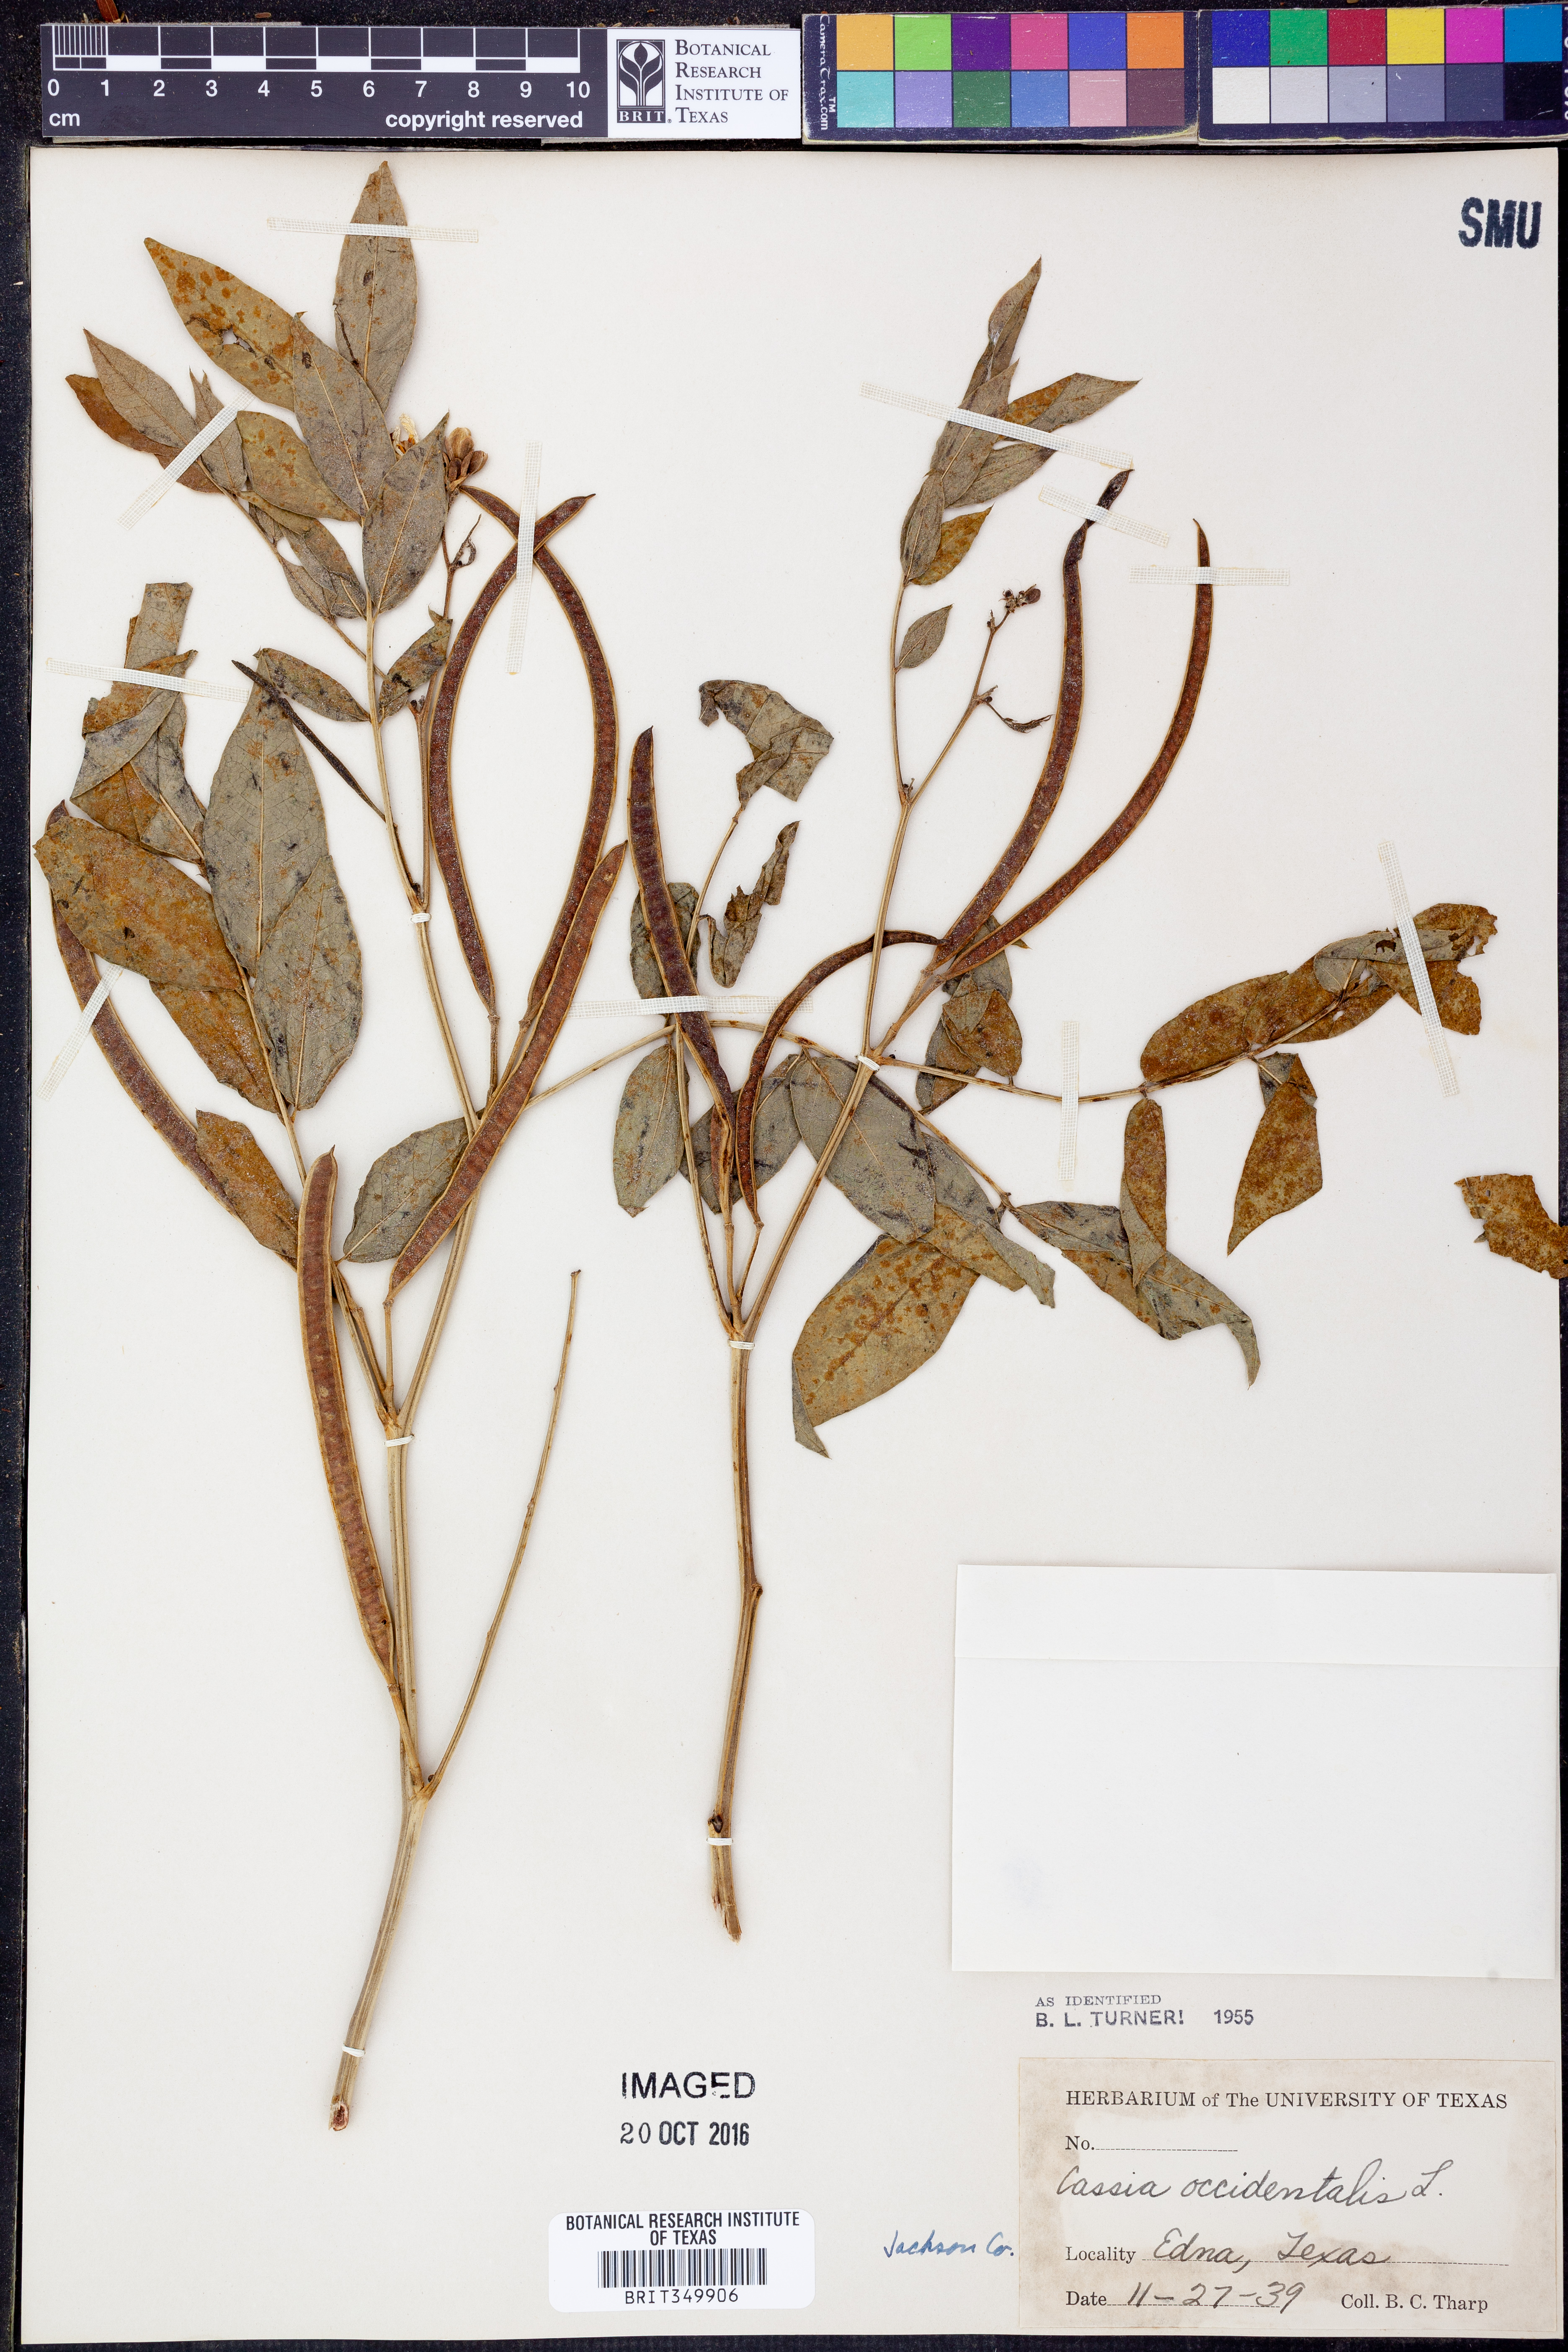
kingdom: Plantae
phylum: Tracheophyta
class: Magnoliopsida
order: Fabales
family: Fabaceae
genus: Senna
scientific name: Senna occidentalis
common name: Septicweed
